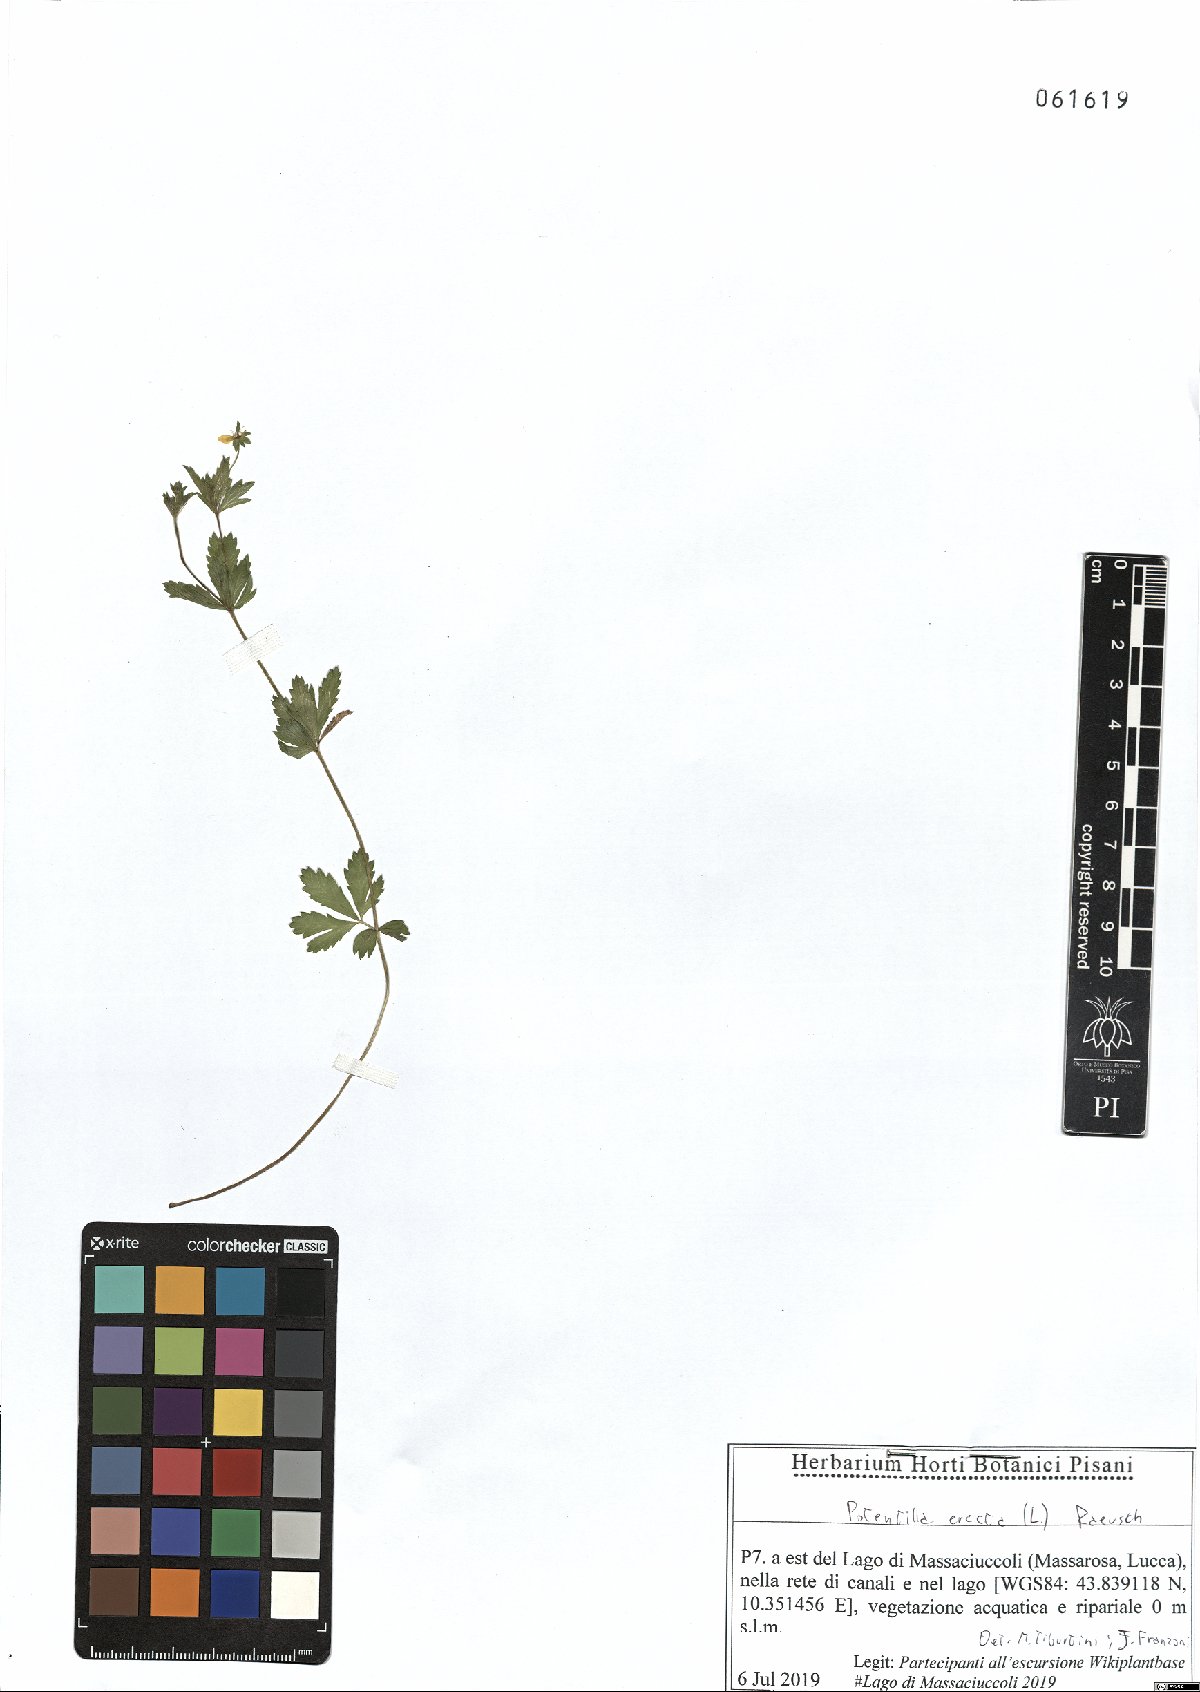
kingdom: Plantae
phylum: Tracheophyta
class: Magnoliopsida
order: Rosales
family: Rosaceae
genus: Potentilla
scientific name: Potentilla erecta
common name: Tormentil
